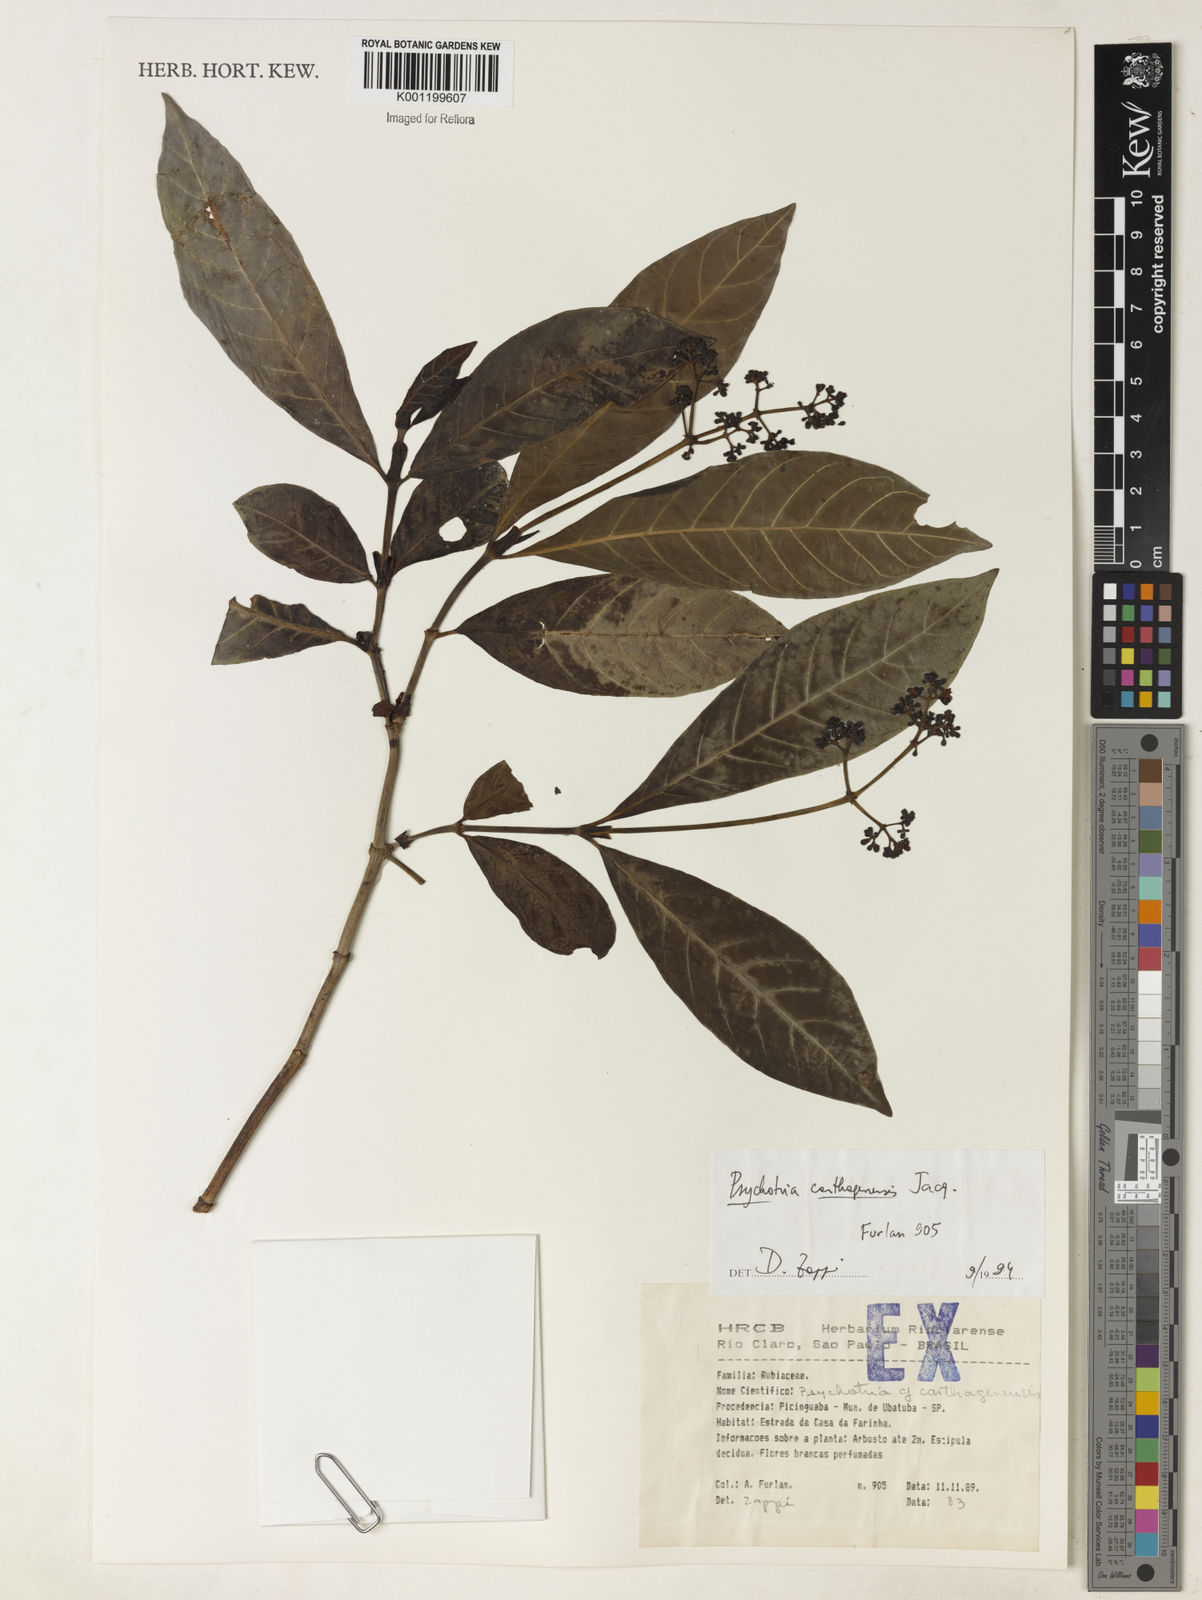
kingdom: Plantae
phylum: Tracheophyta
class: Magnoliopsida
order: Gentianales
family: Rubiaceae
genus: Psychotria
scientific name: Psychotria carthagenensis
